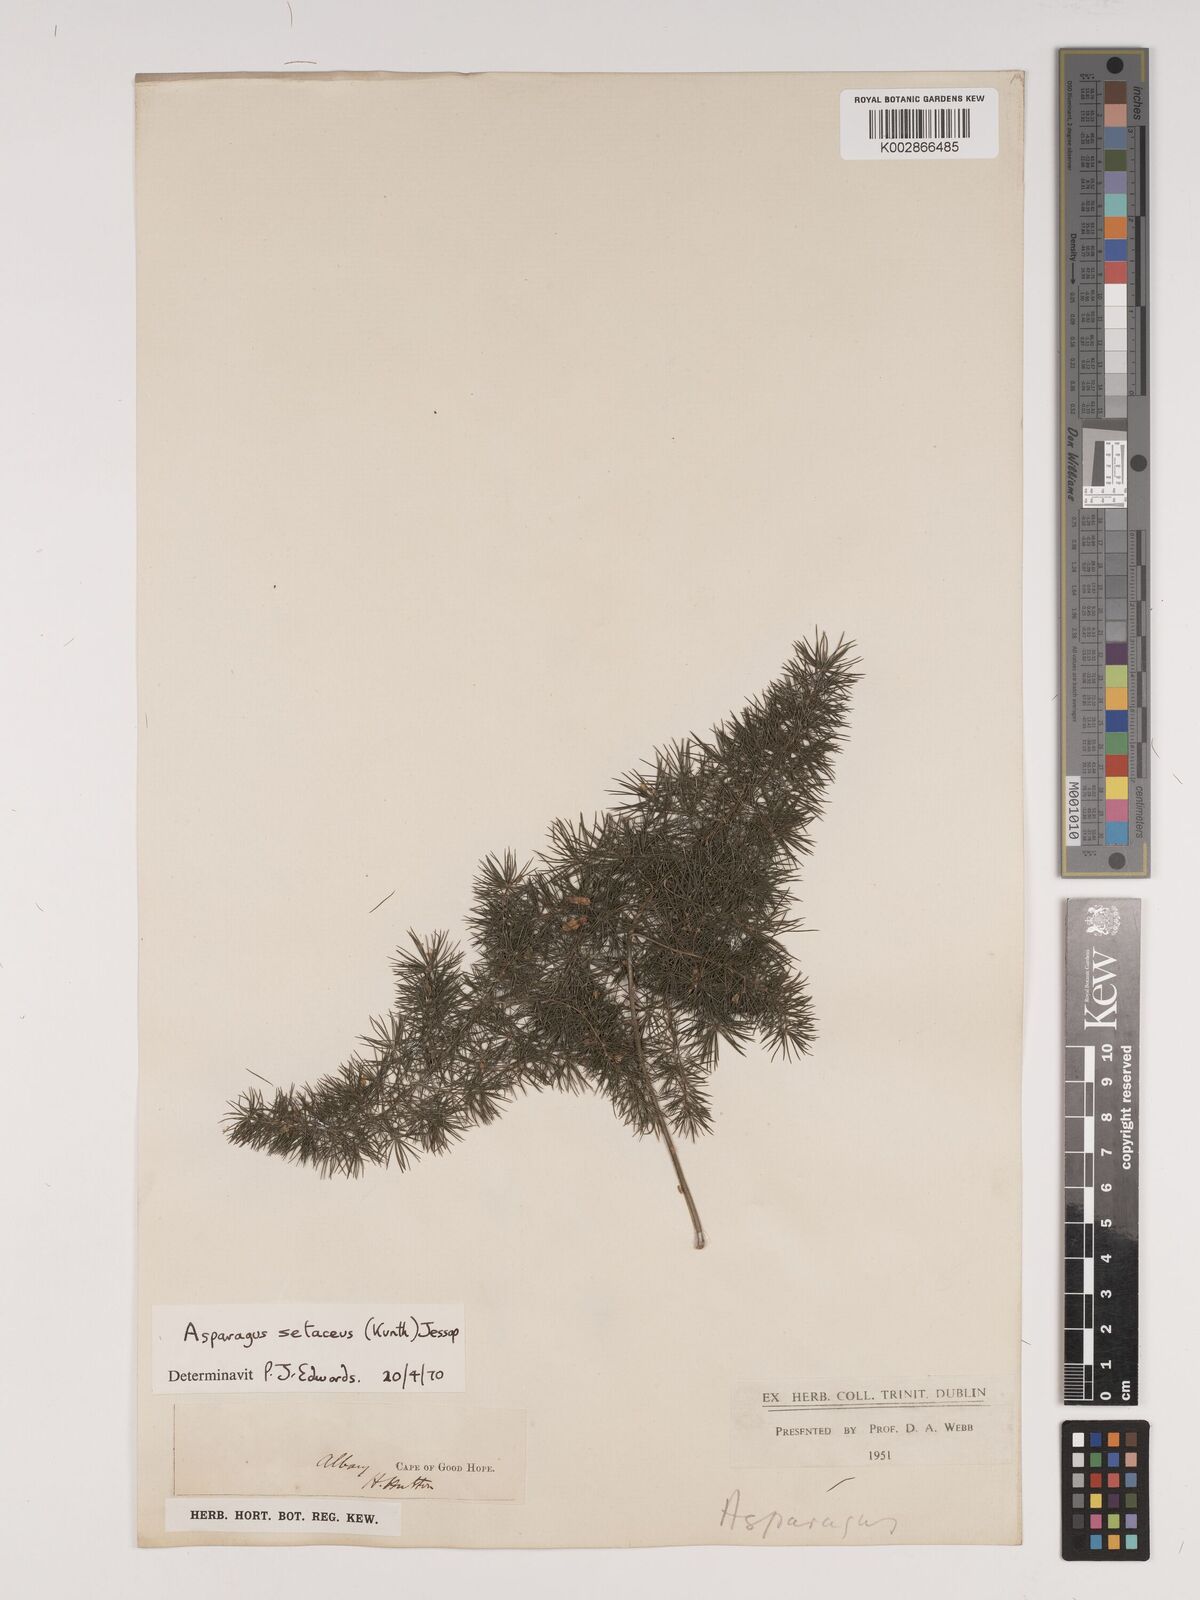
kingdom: Plantae
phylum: Tracheophyta
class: Liliopsida
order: Asparagales
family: Asparagaceae
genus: Asparagus
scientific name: Asparagus setaceus
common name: Common asparagus fern
